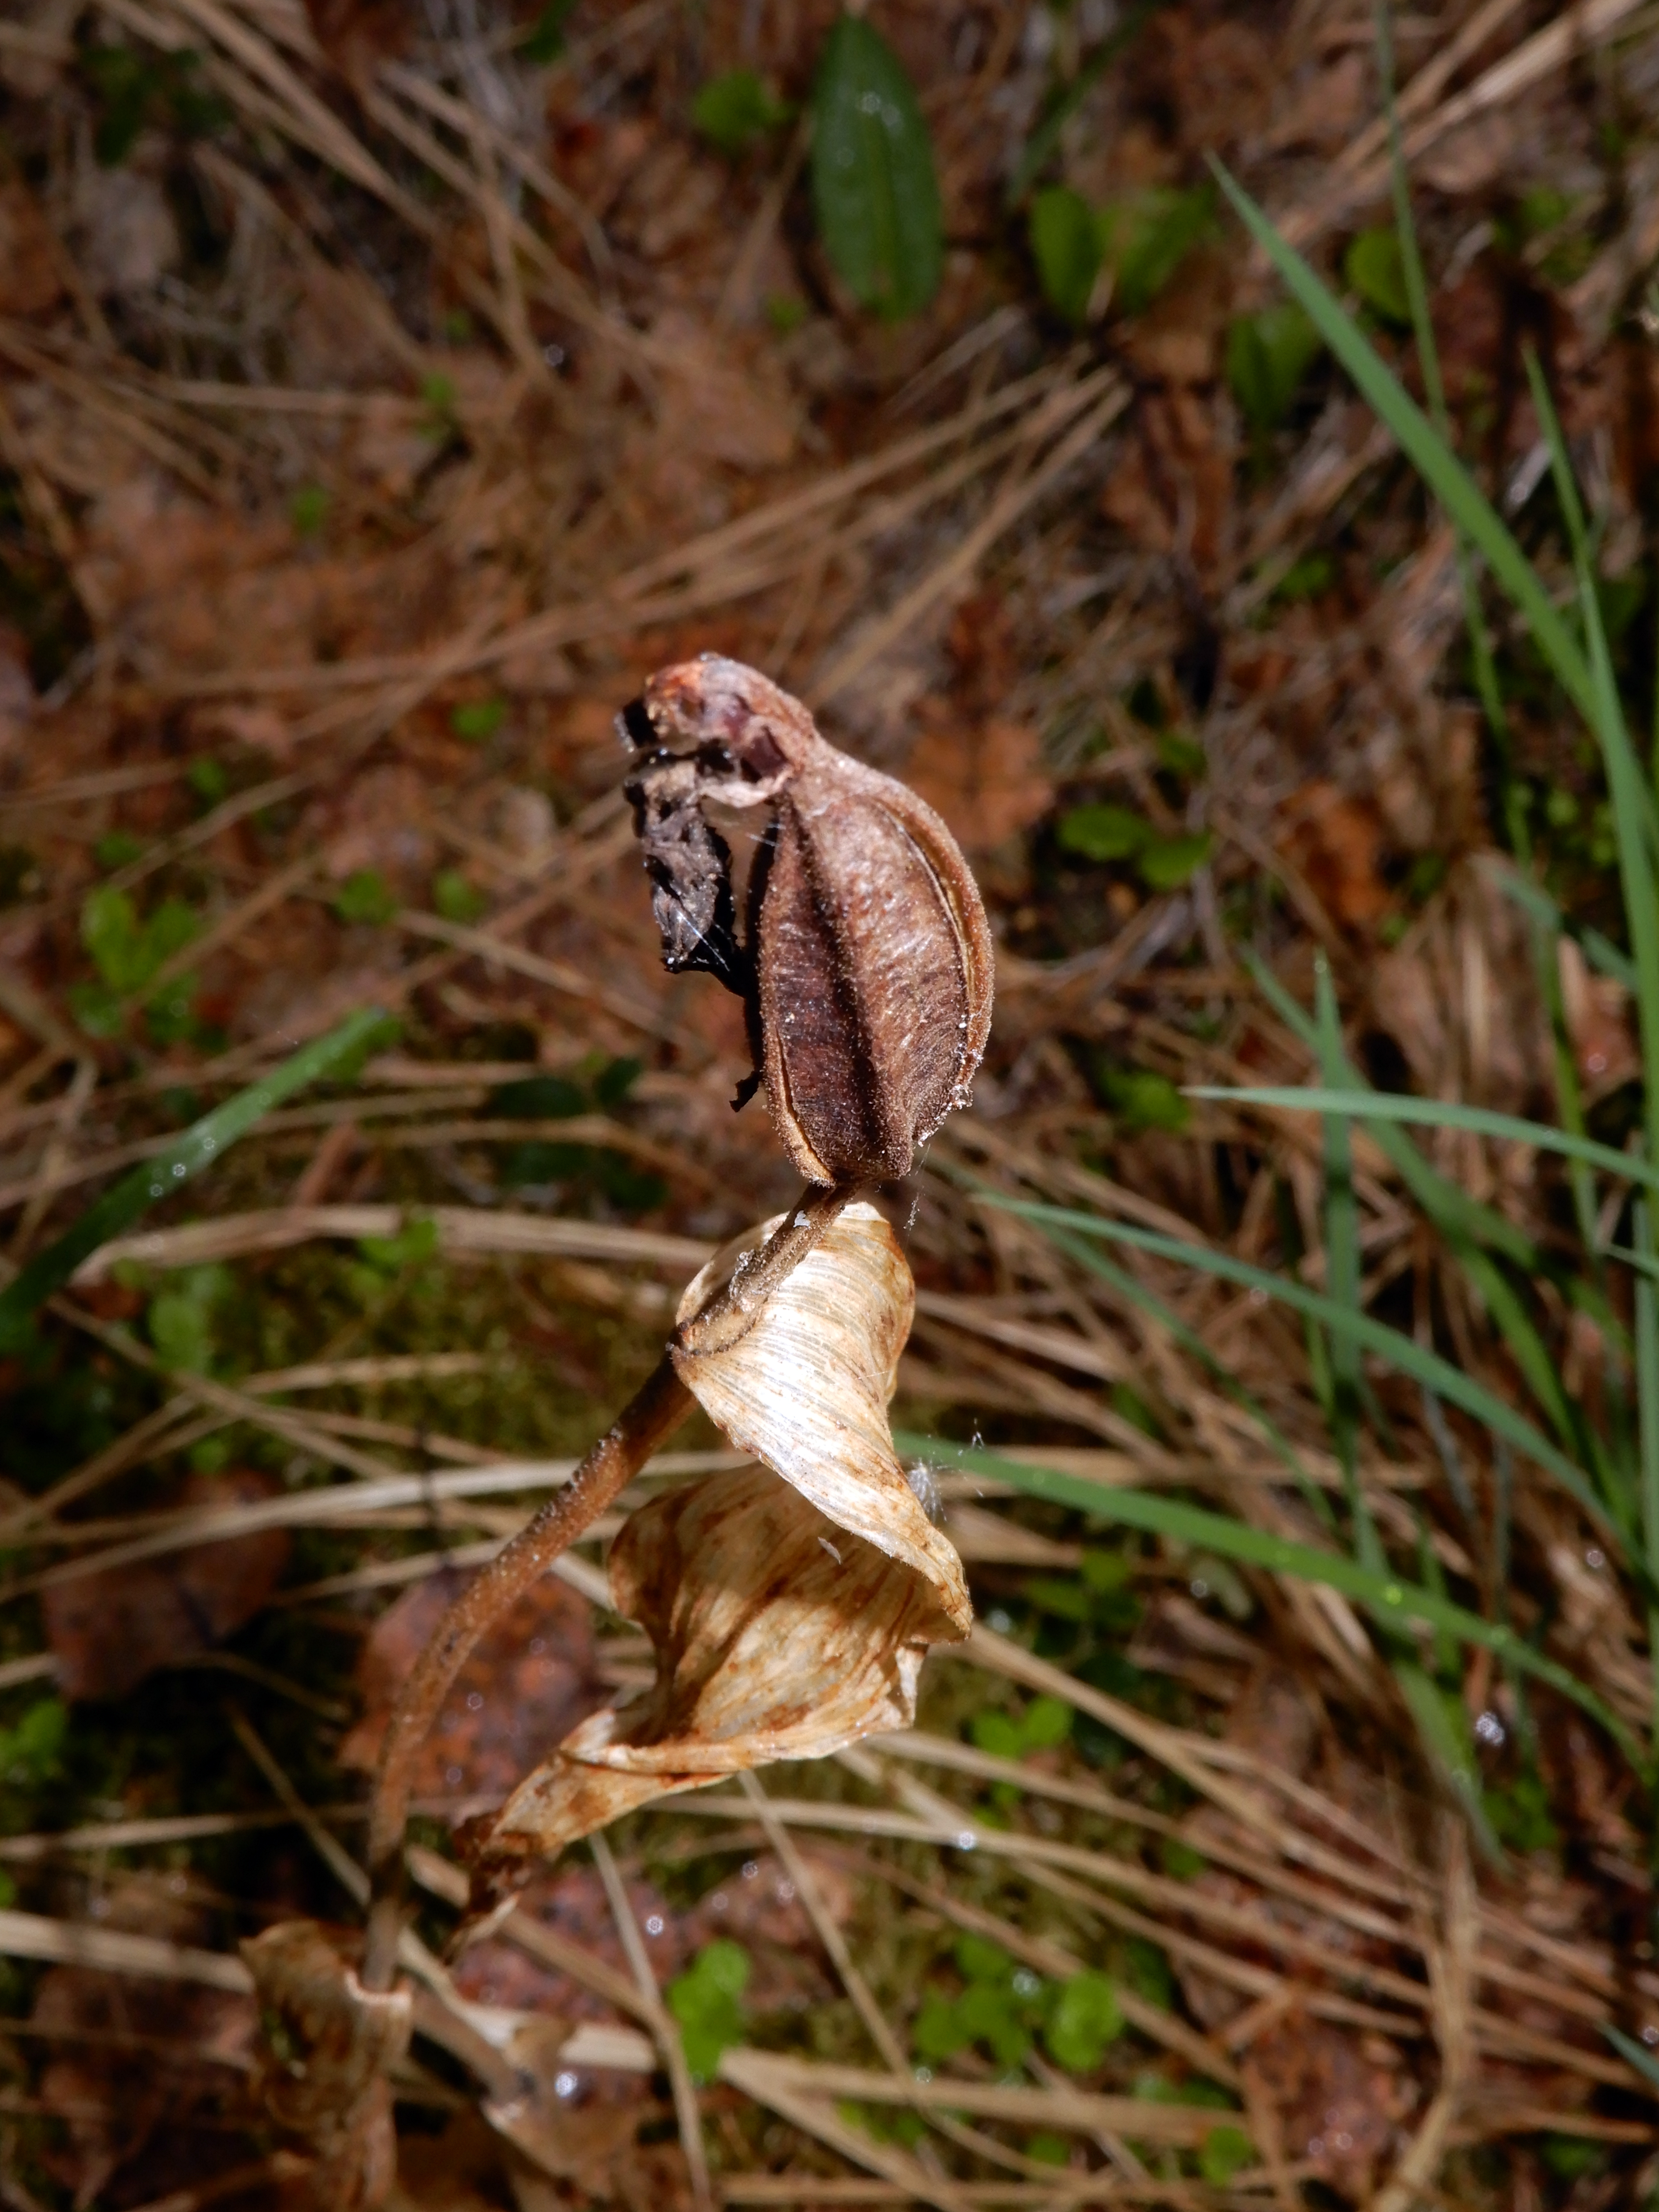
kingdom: Plantae
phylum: Tracheophyta
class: Liliopsida
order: Asparagales
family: Orchidaceae
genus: Cypripedium
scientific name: Cypripedium calceolus
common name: Lady's-slipper
